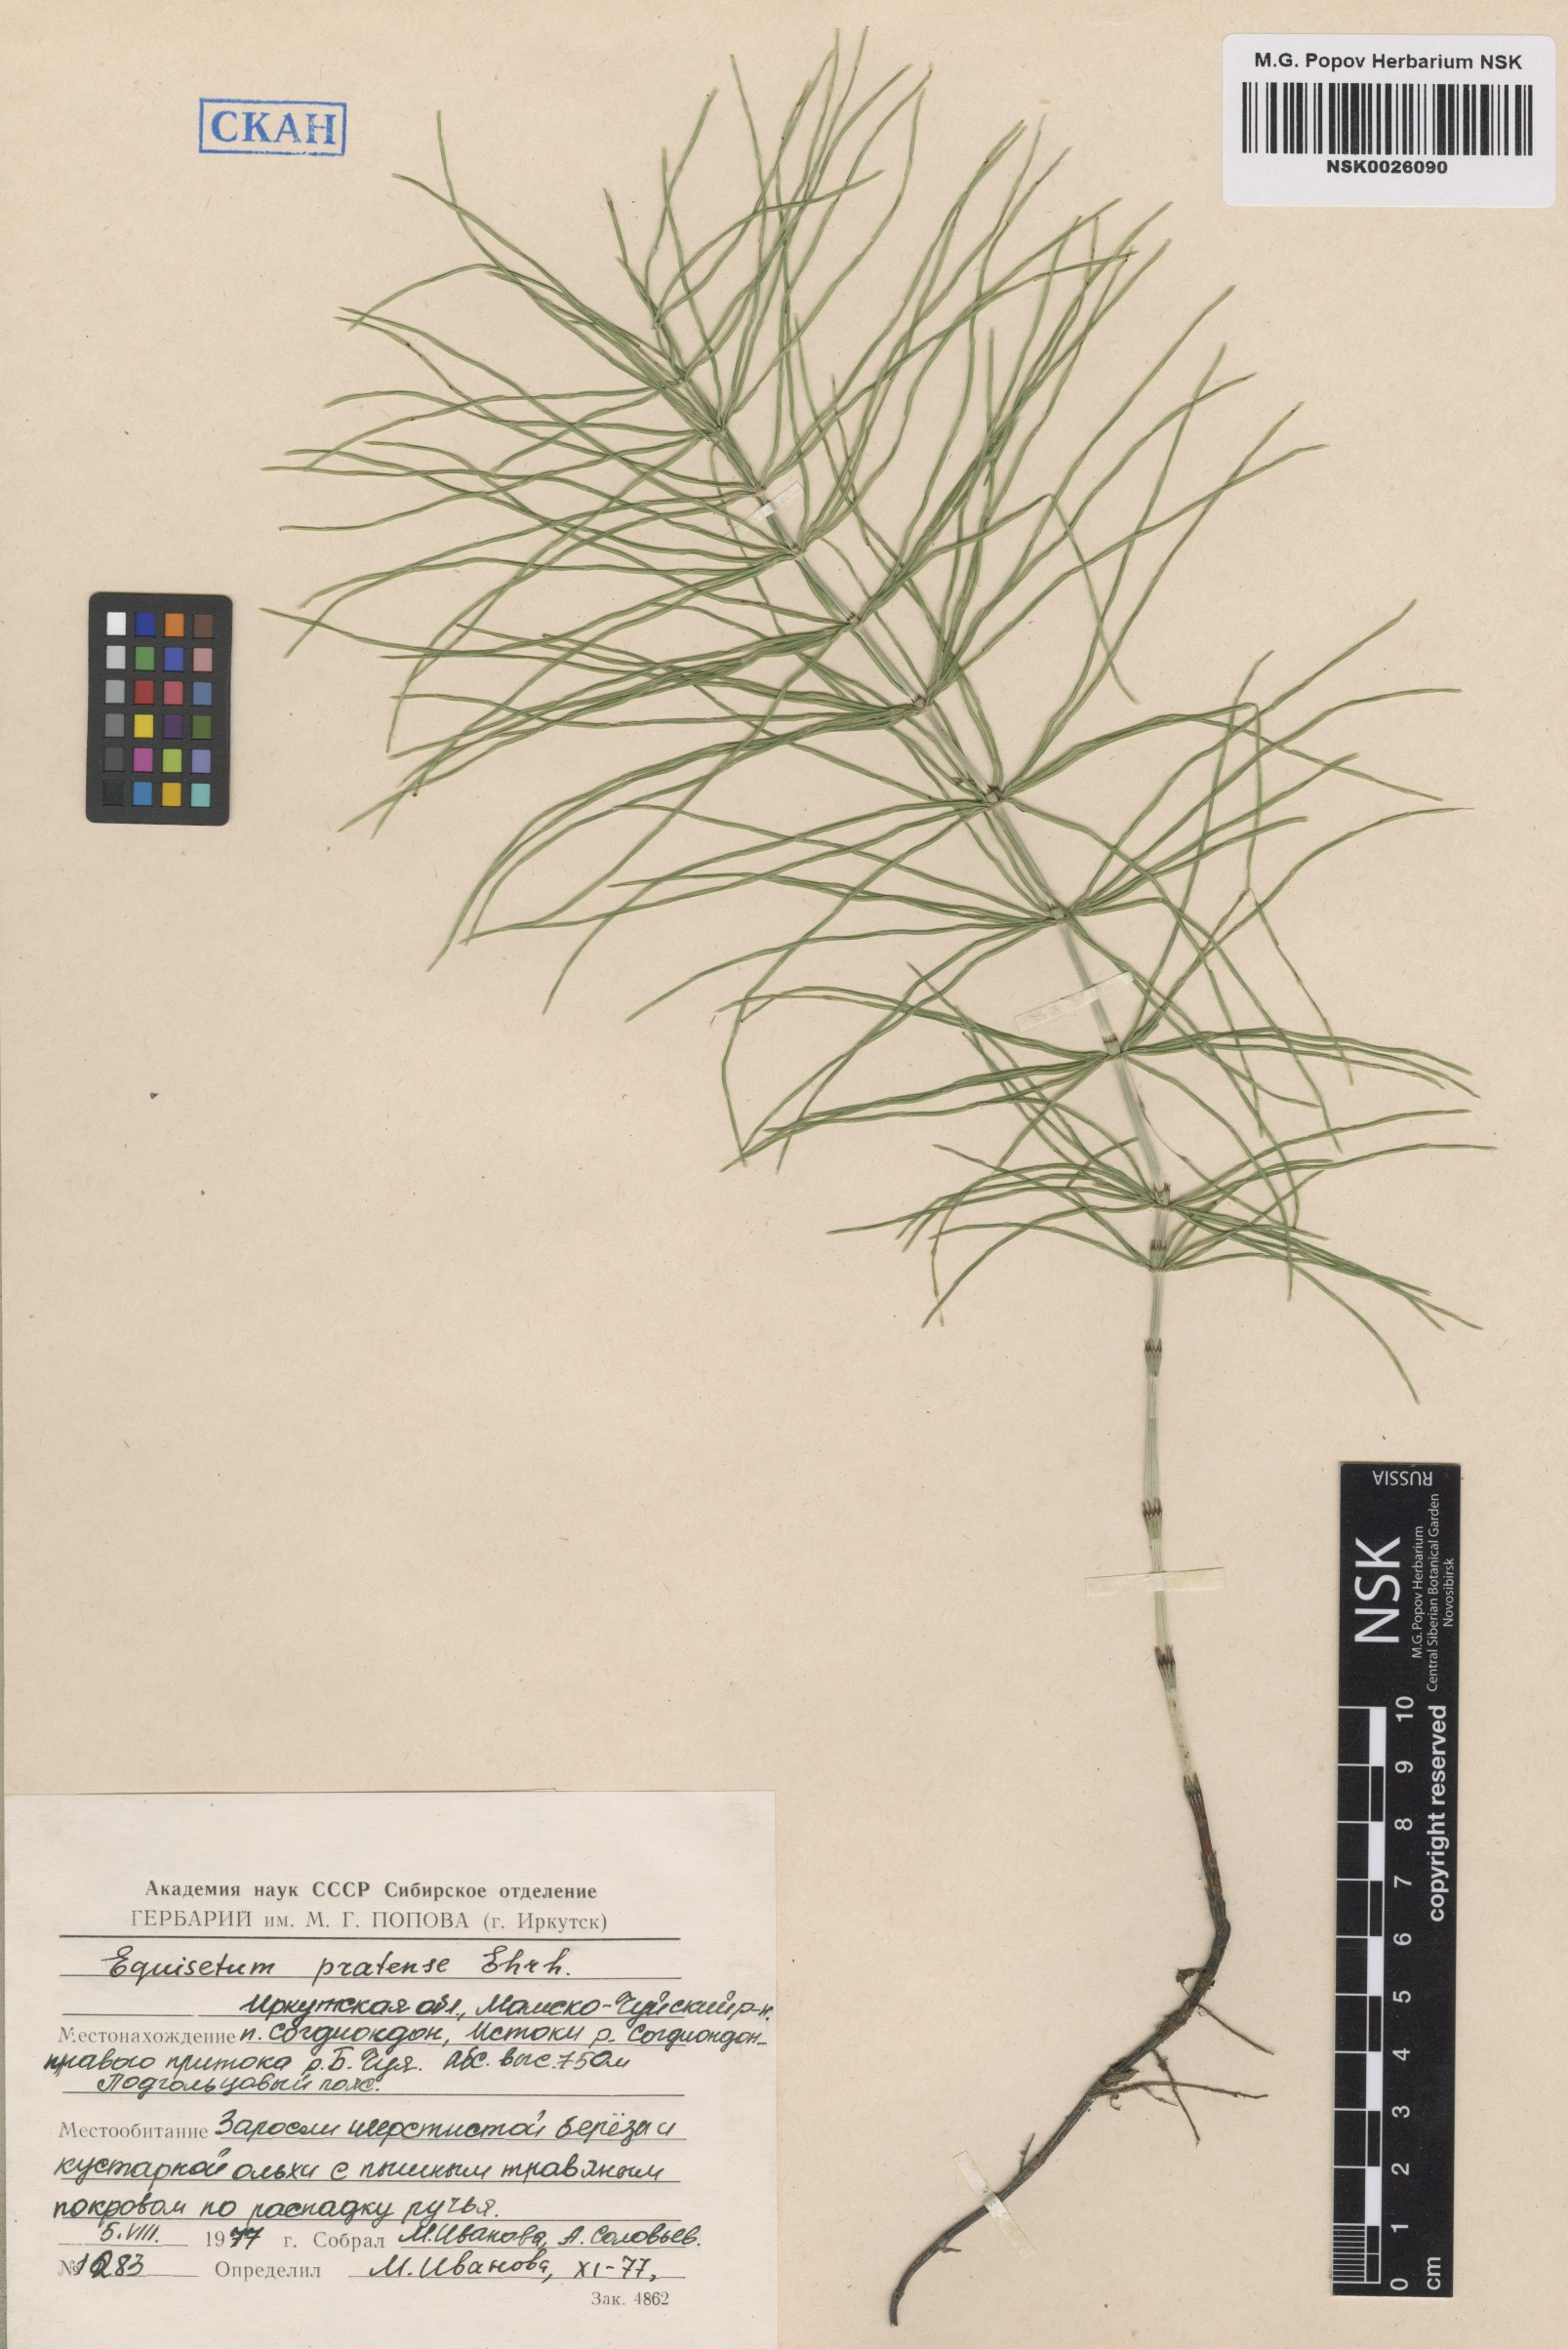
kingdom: Plantae
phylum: Tracheophyta
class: Polypodiopsida
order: Equisetales
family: Equisetaceae
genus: Equisetum
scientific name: Equisetum pratense
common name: Meadow horsetail
